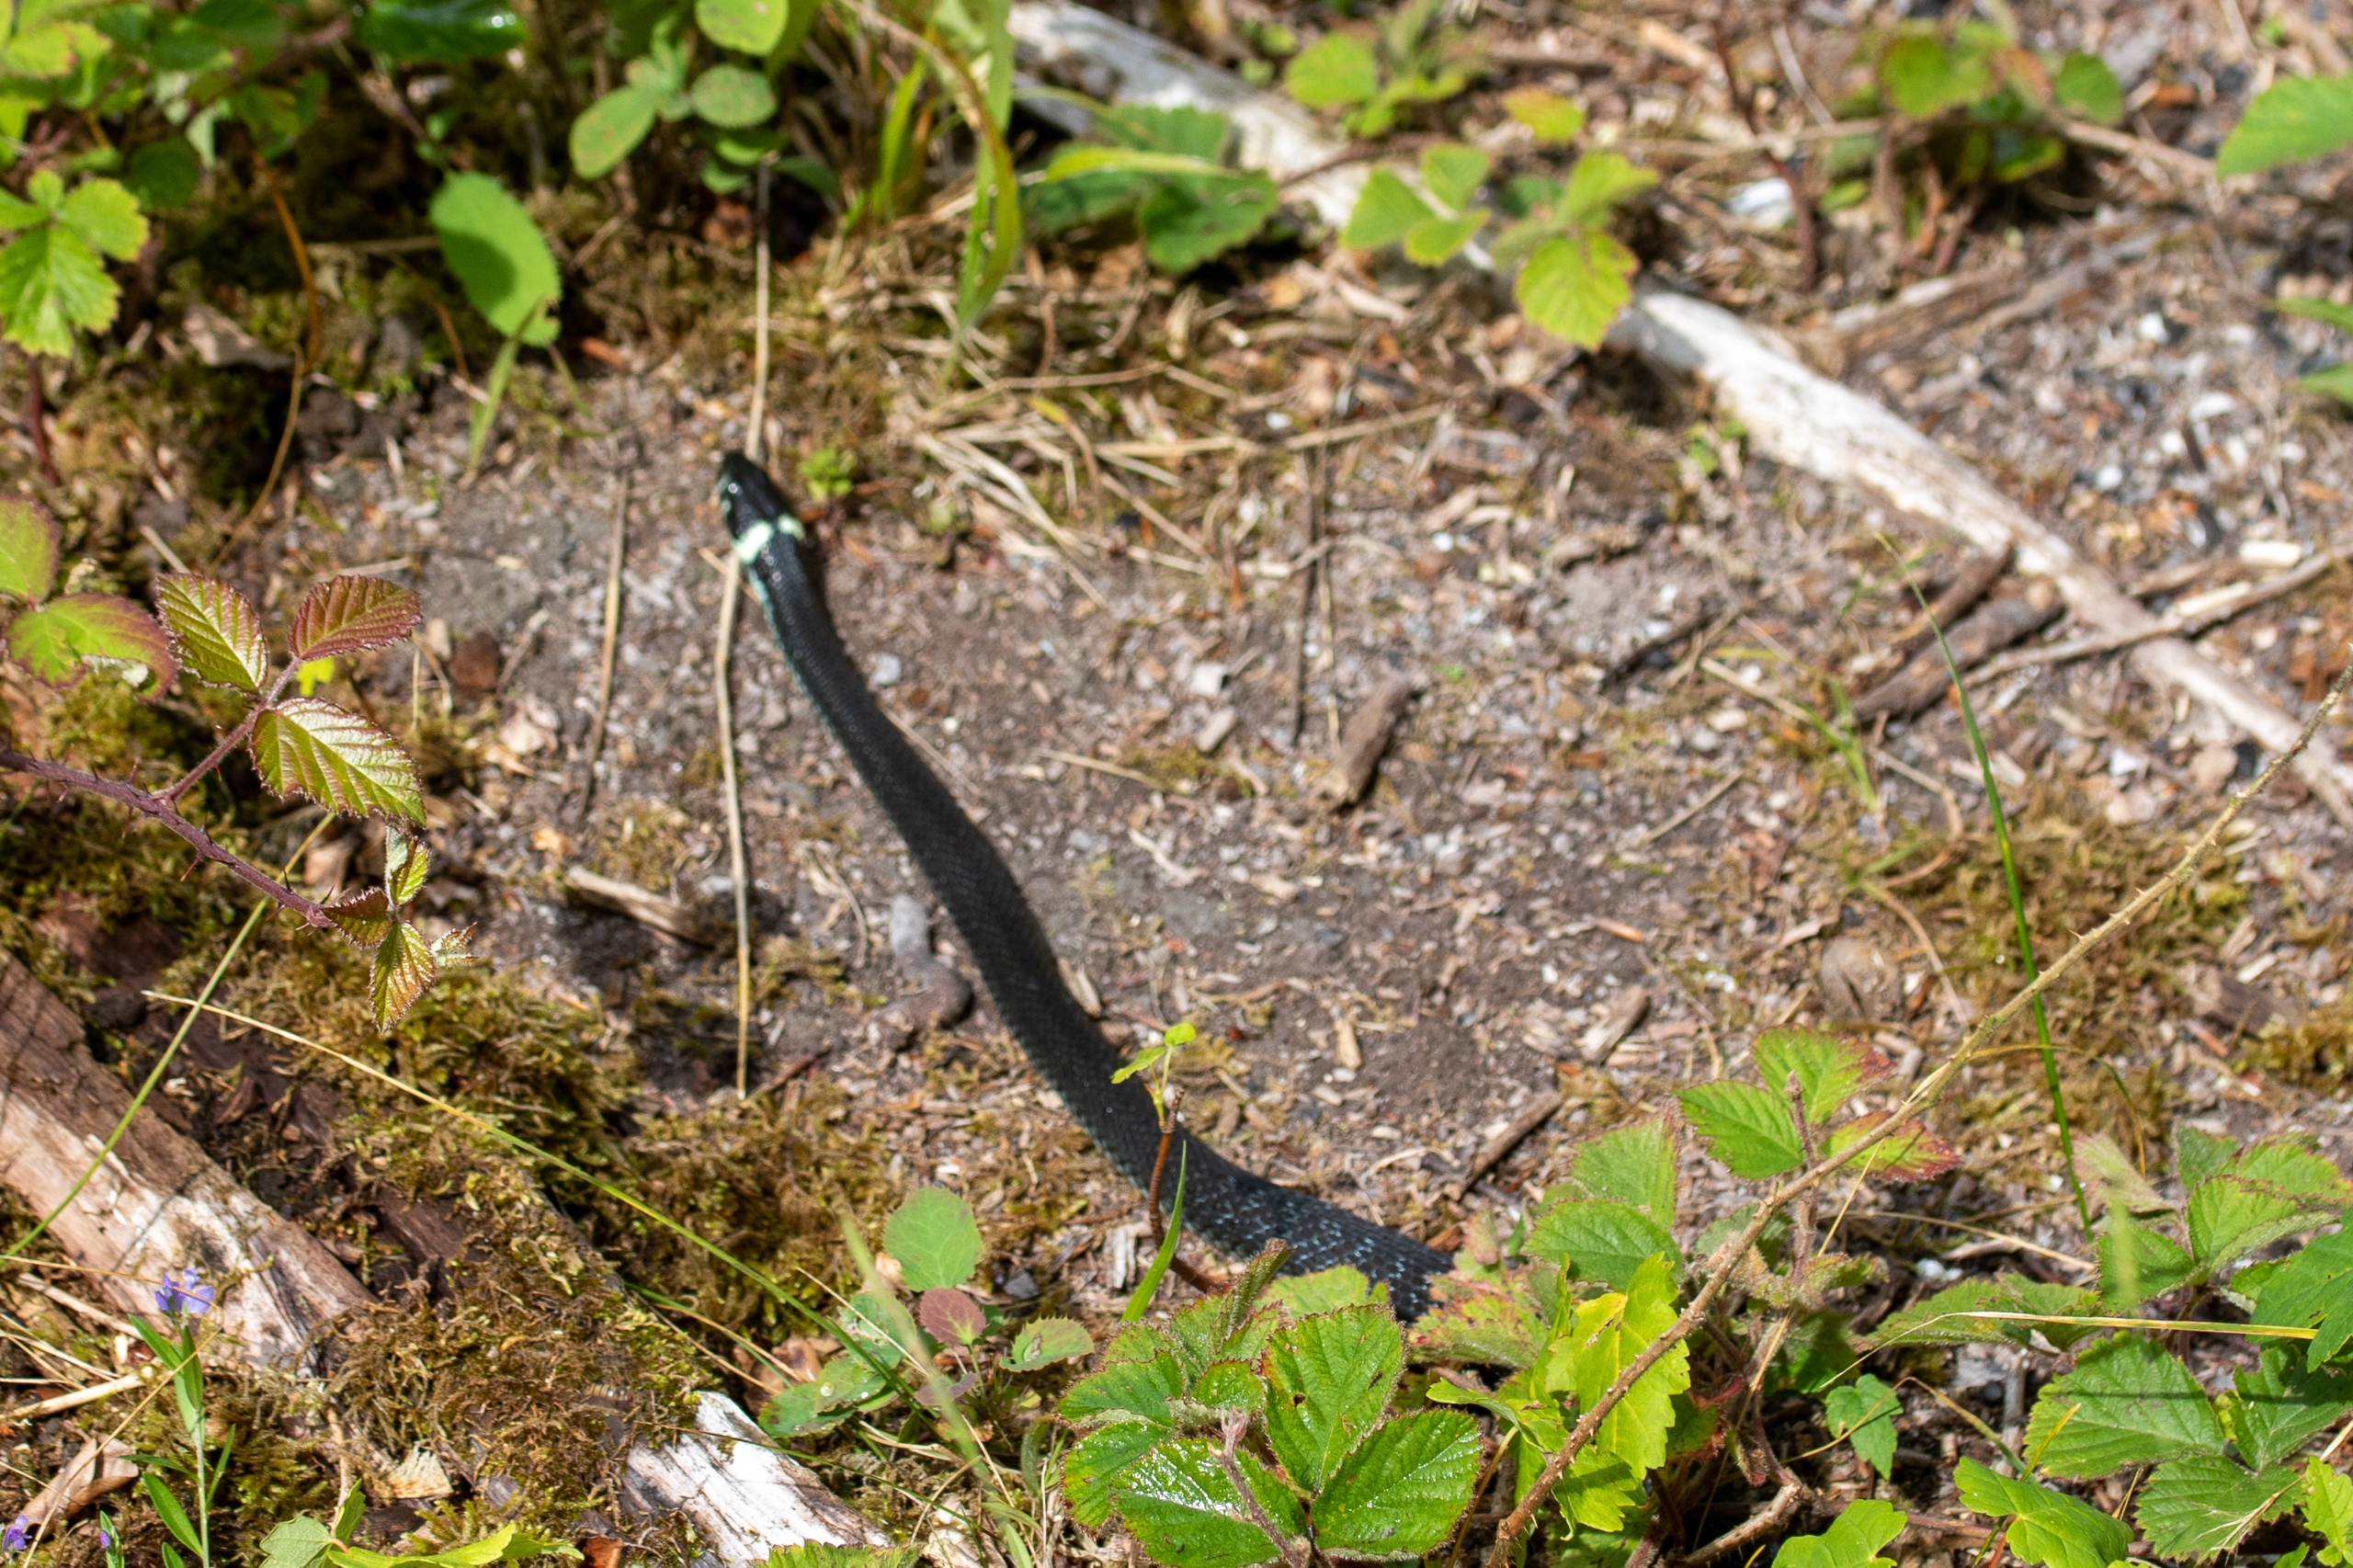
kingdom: Animalia
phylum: Chordata
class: Squamata
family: Colubridae
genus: Natrix
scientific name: Natrix natrix
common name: Snog
